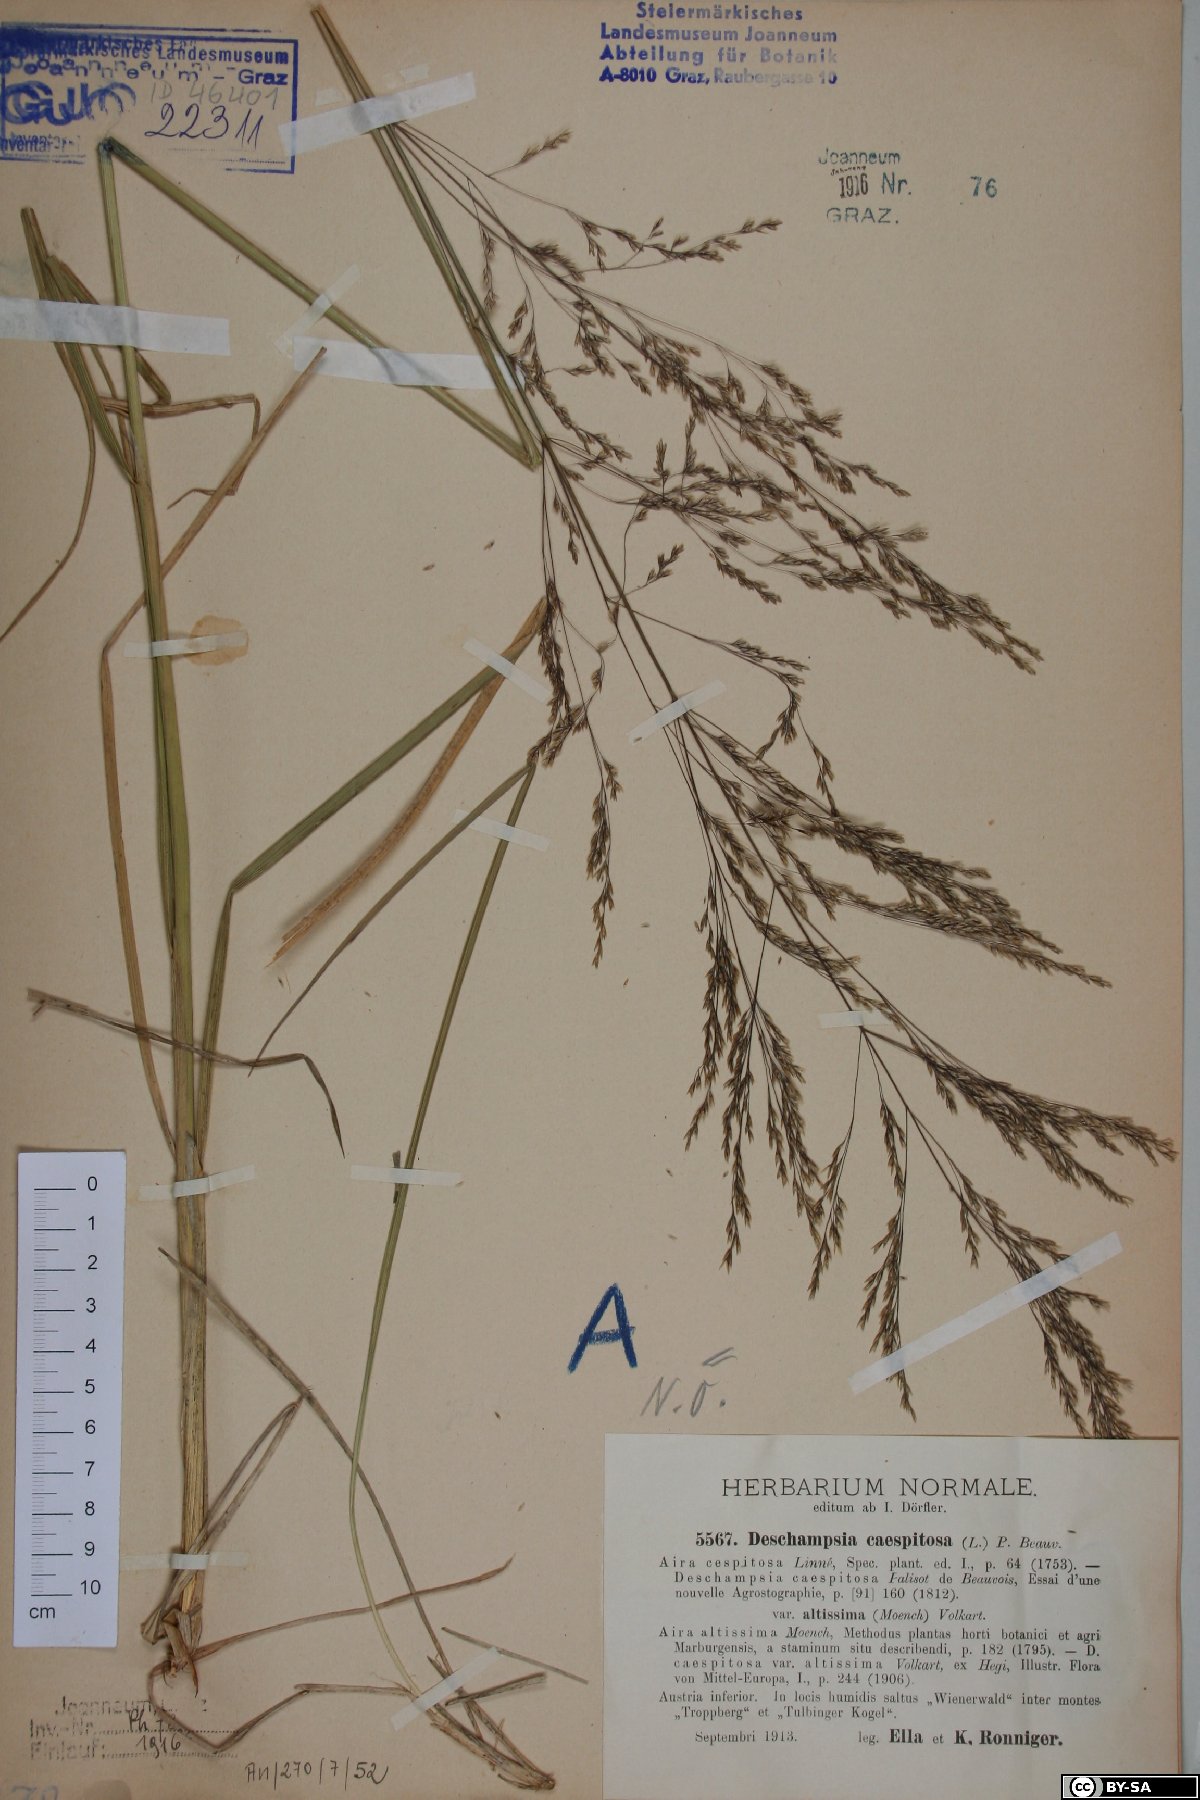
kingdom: Plantae
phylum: Tracheophyta
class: Liliopsida
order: Poales
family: Poaceae
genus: Deschampsia
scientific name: Deschampsia cespitosa
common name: Tufted hair-grass
